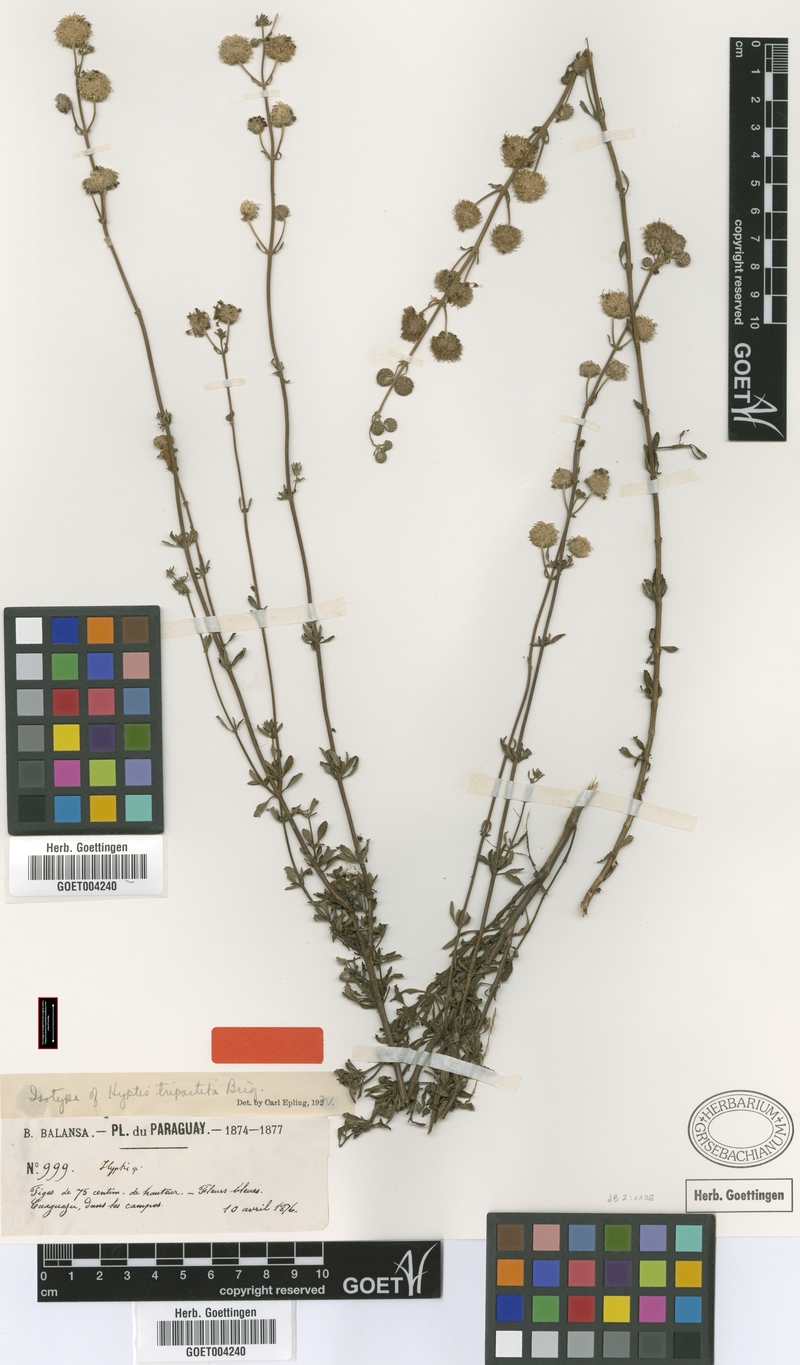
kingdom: Plantae
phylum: Tracheophyta
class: Magnoliopsida
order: Lamiales
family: Lamiaceae
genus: Cyanocephalus
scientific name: Cyanocephalus tripartitus
